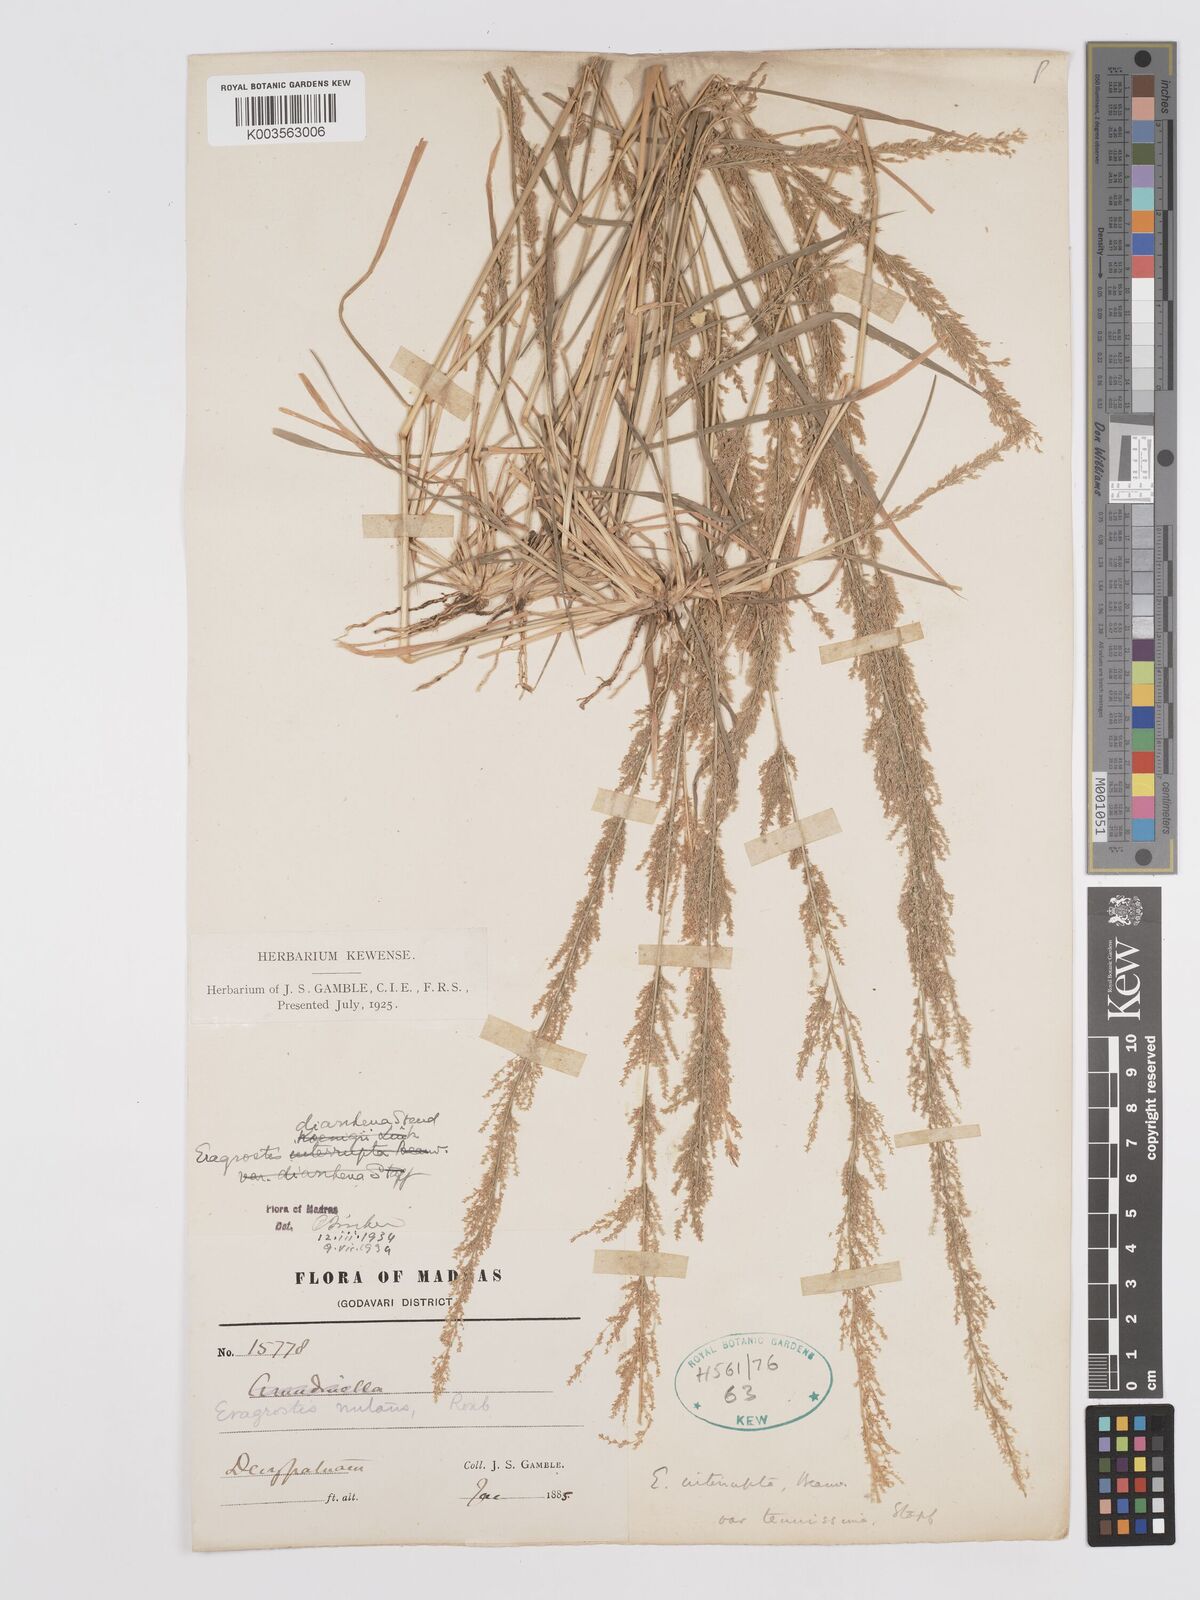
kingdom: Plantae
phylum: Tracheophyta
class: Liliopsida
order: Poales
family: Poaceae
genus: Eragrostis
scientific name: Eragrostis japonica
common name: Pond lovegrass
